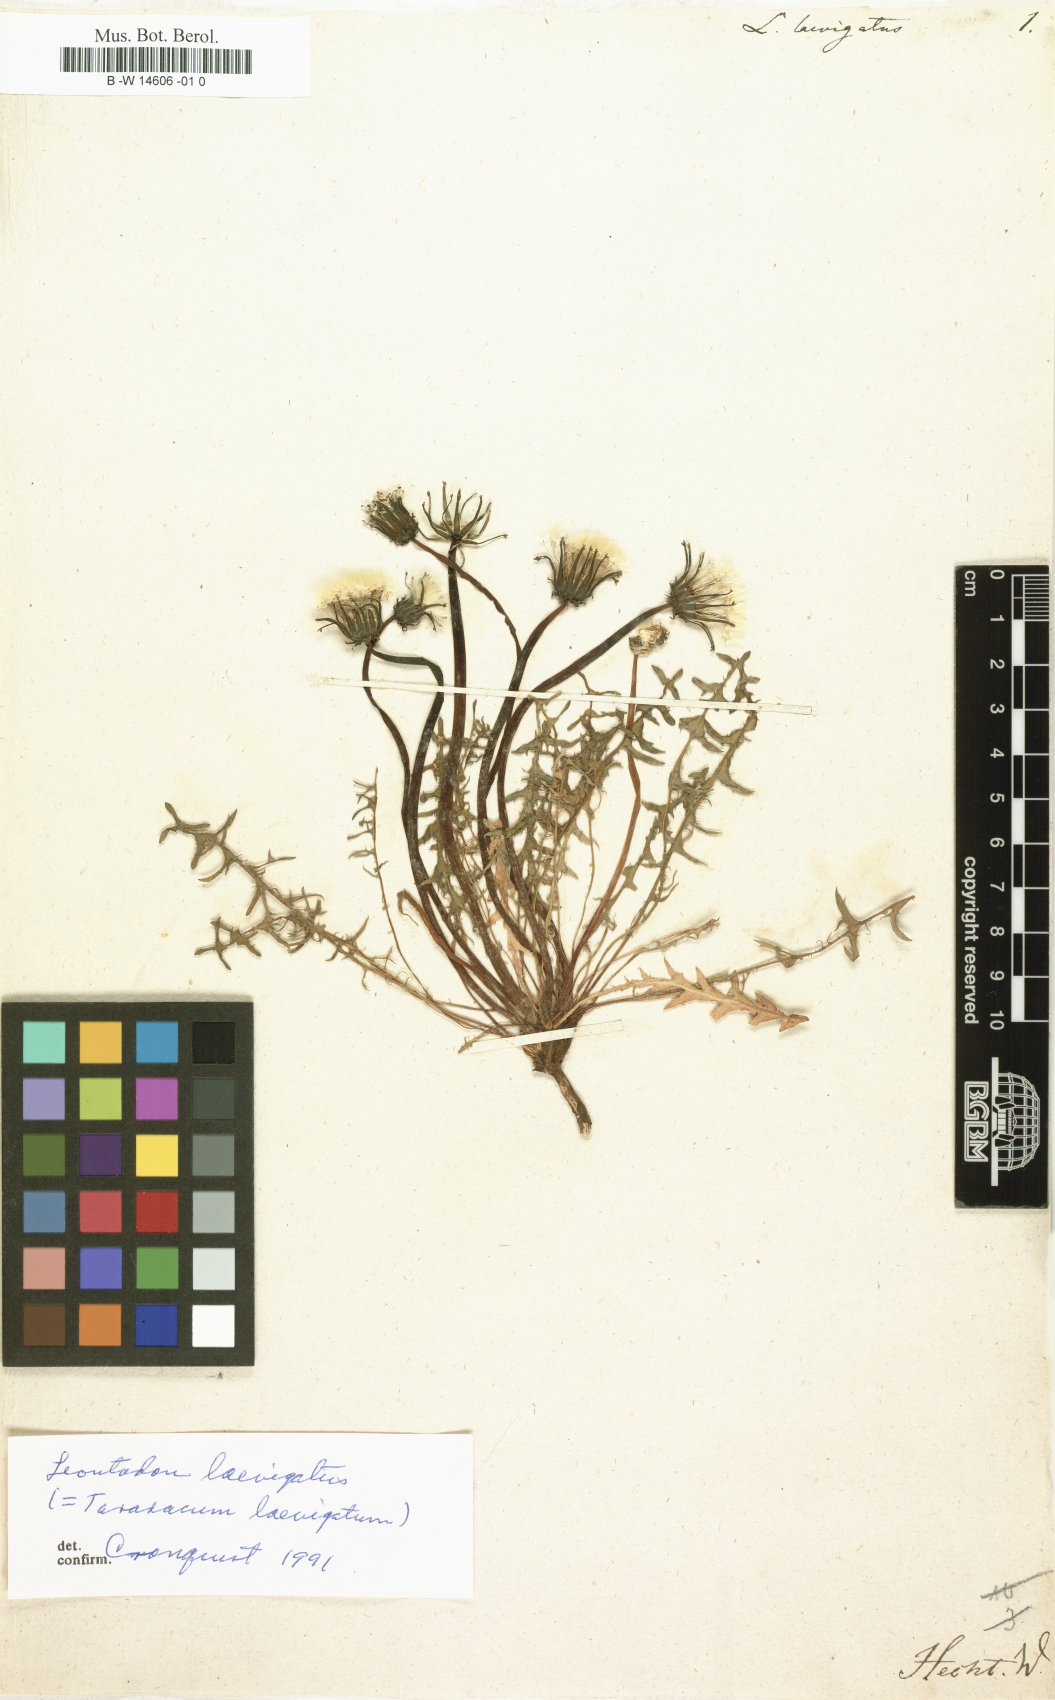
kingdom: Plantae
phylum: Tracheophyta
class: Magnoliopsida
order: Asterales
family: Asteraceae
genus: Taraxacum
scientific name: Taraxacum erythrospermum
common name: Rock dandelion
